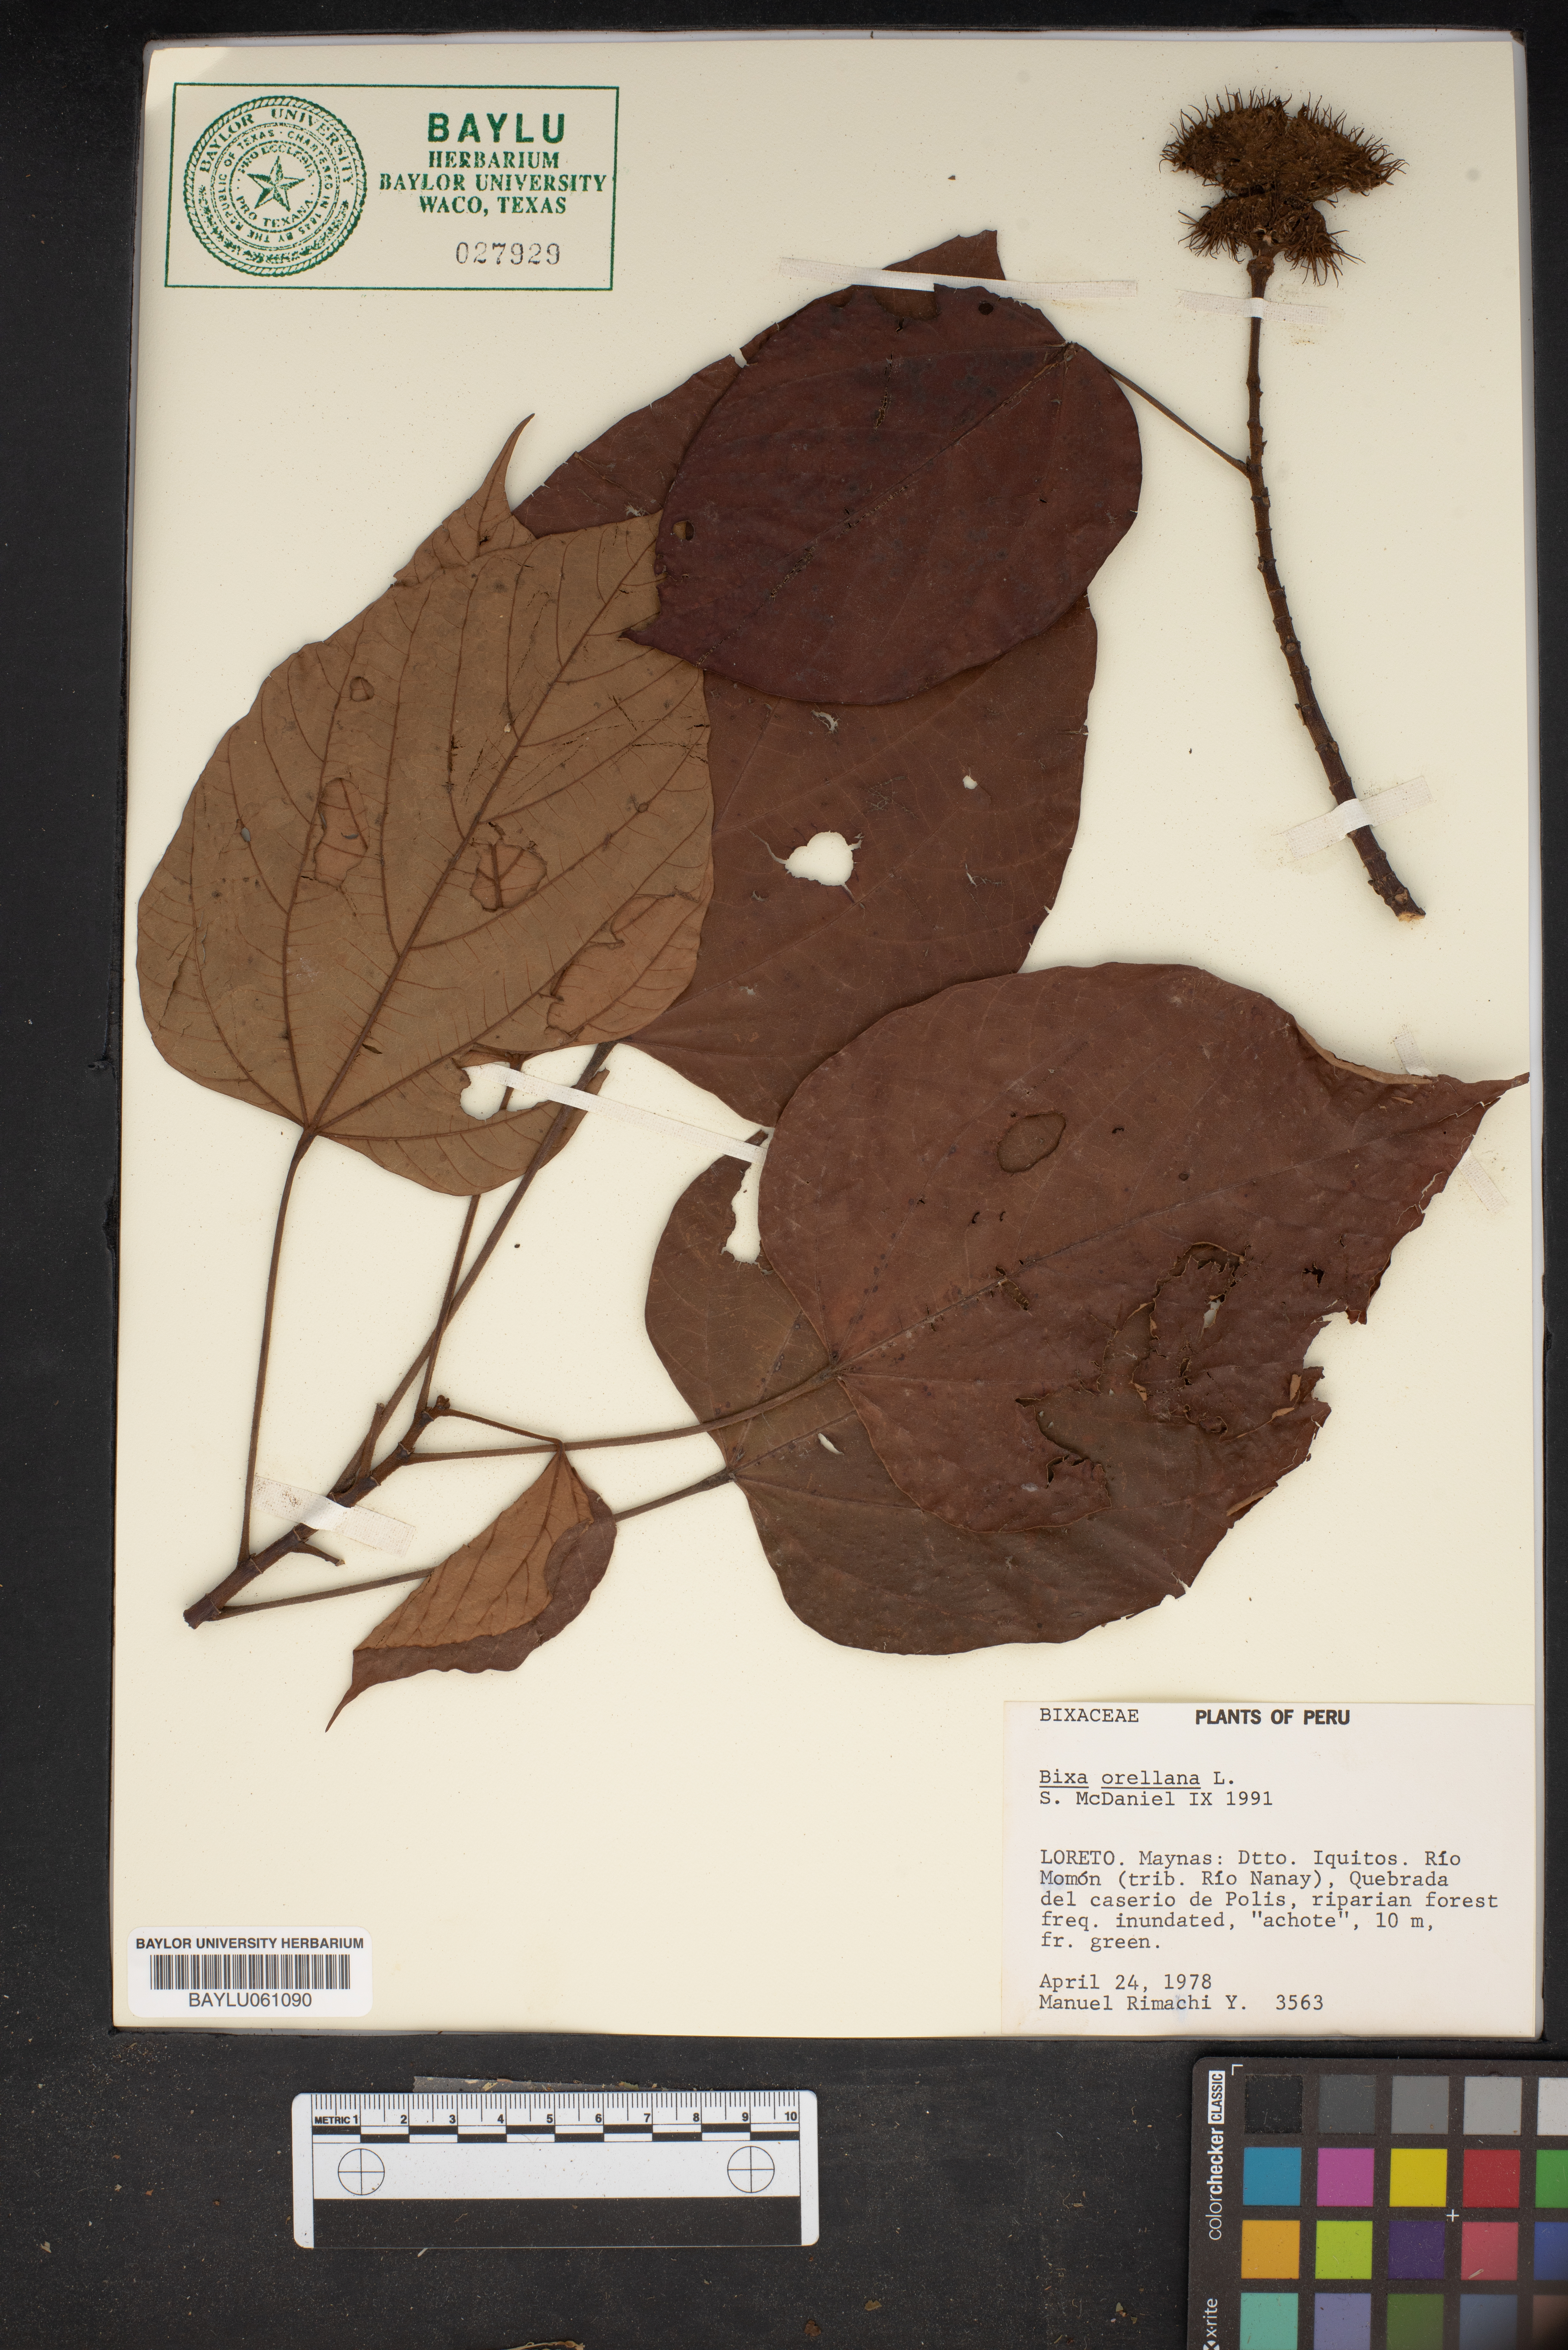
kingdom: Plantae
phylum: Tracheophyta
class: Magnoliopsida
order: Malvales
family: Bixaceae
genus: Bixa
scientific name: Bixa orellana
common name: Lipsticktree
